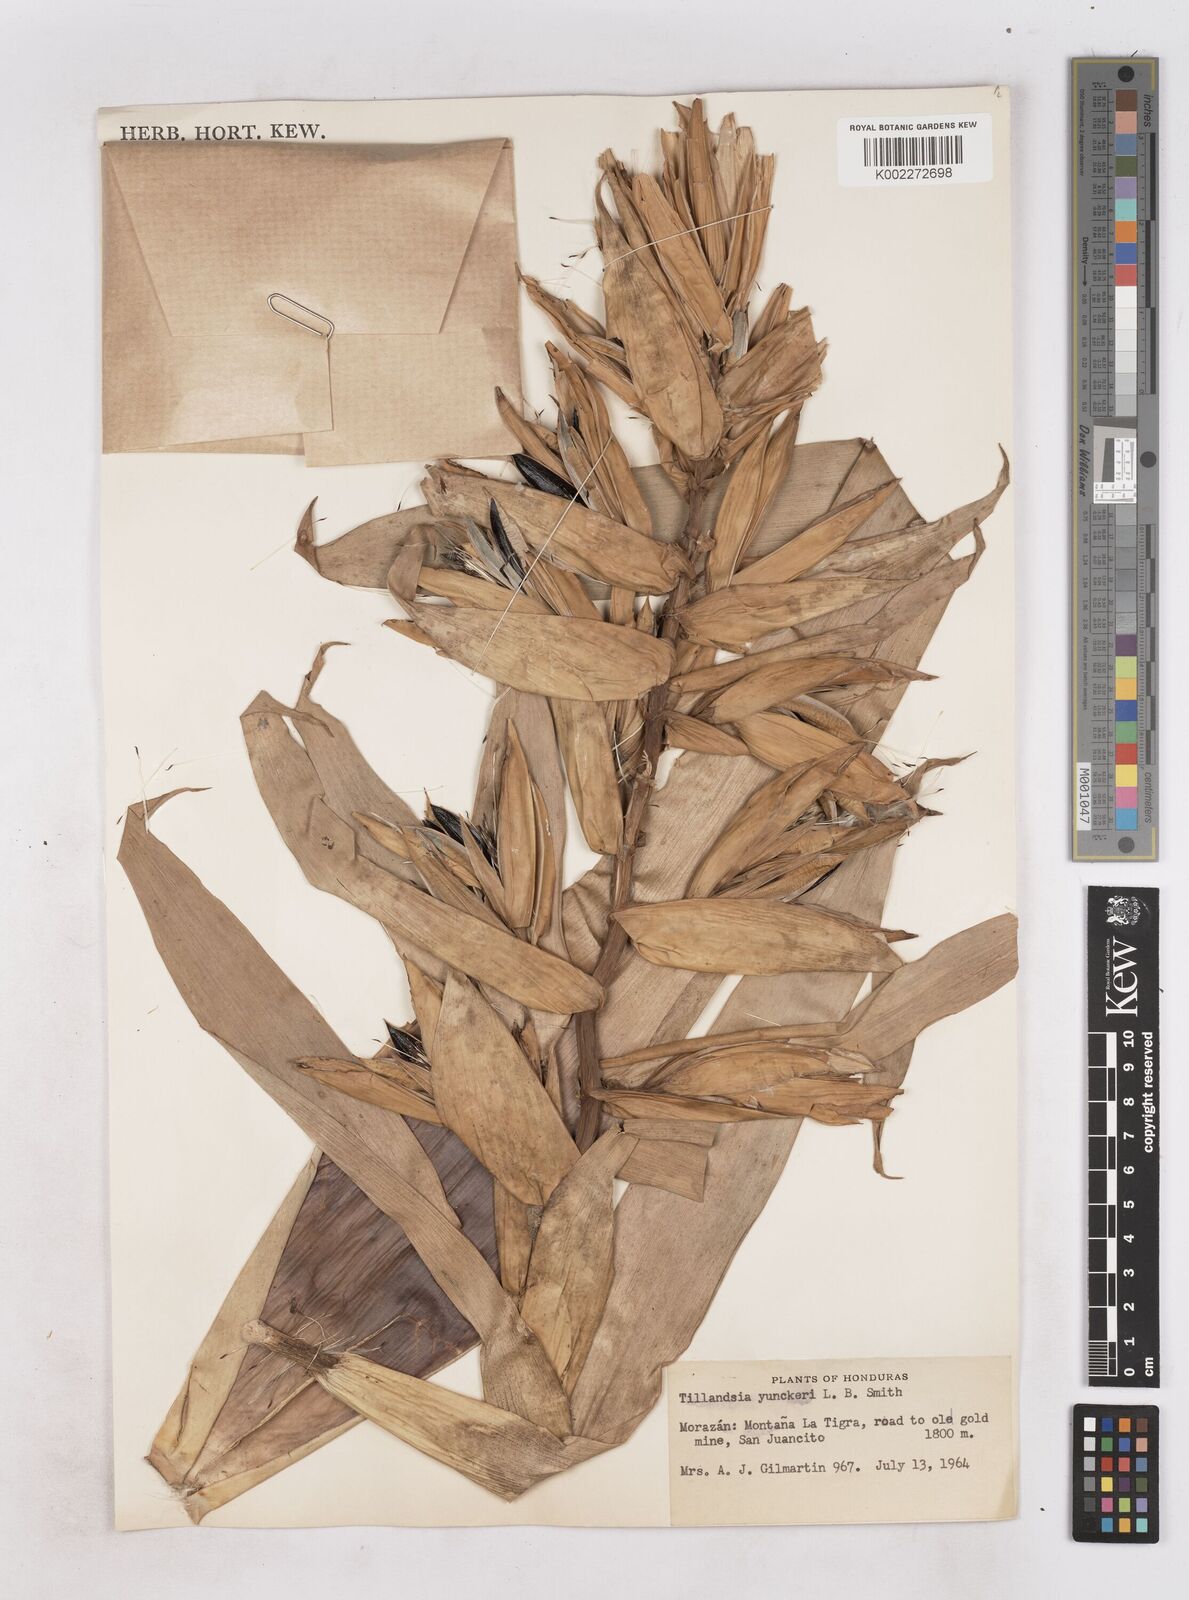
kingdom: Plantae
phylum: Tracheophyta
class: Liliopsida
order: Poales
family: Bromeliaceae
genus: Tillandsia
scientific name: Tillandsia yunckeri
